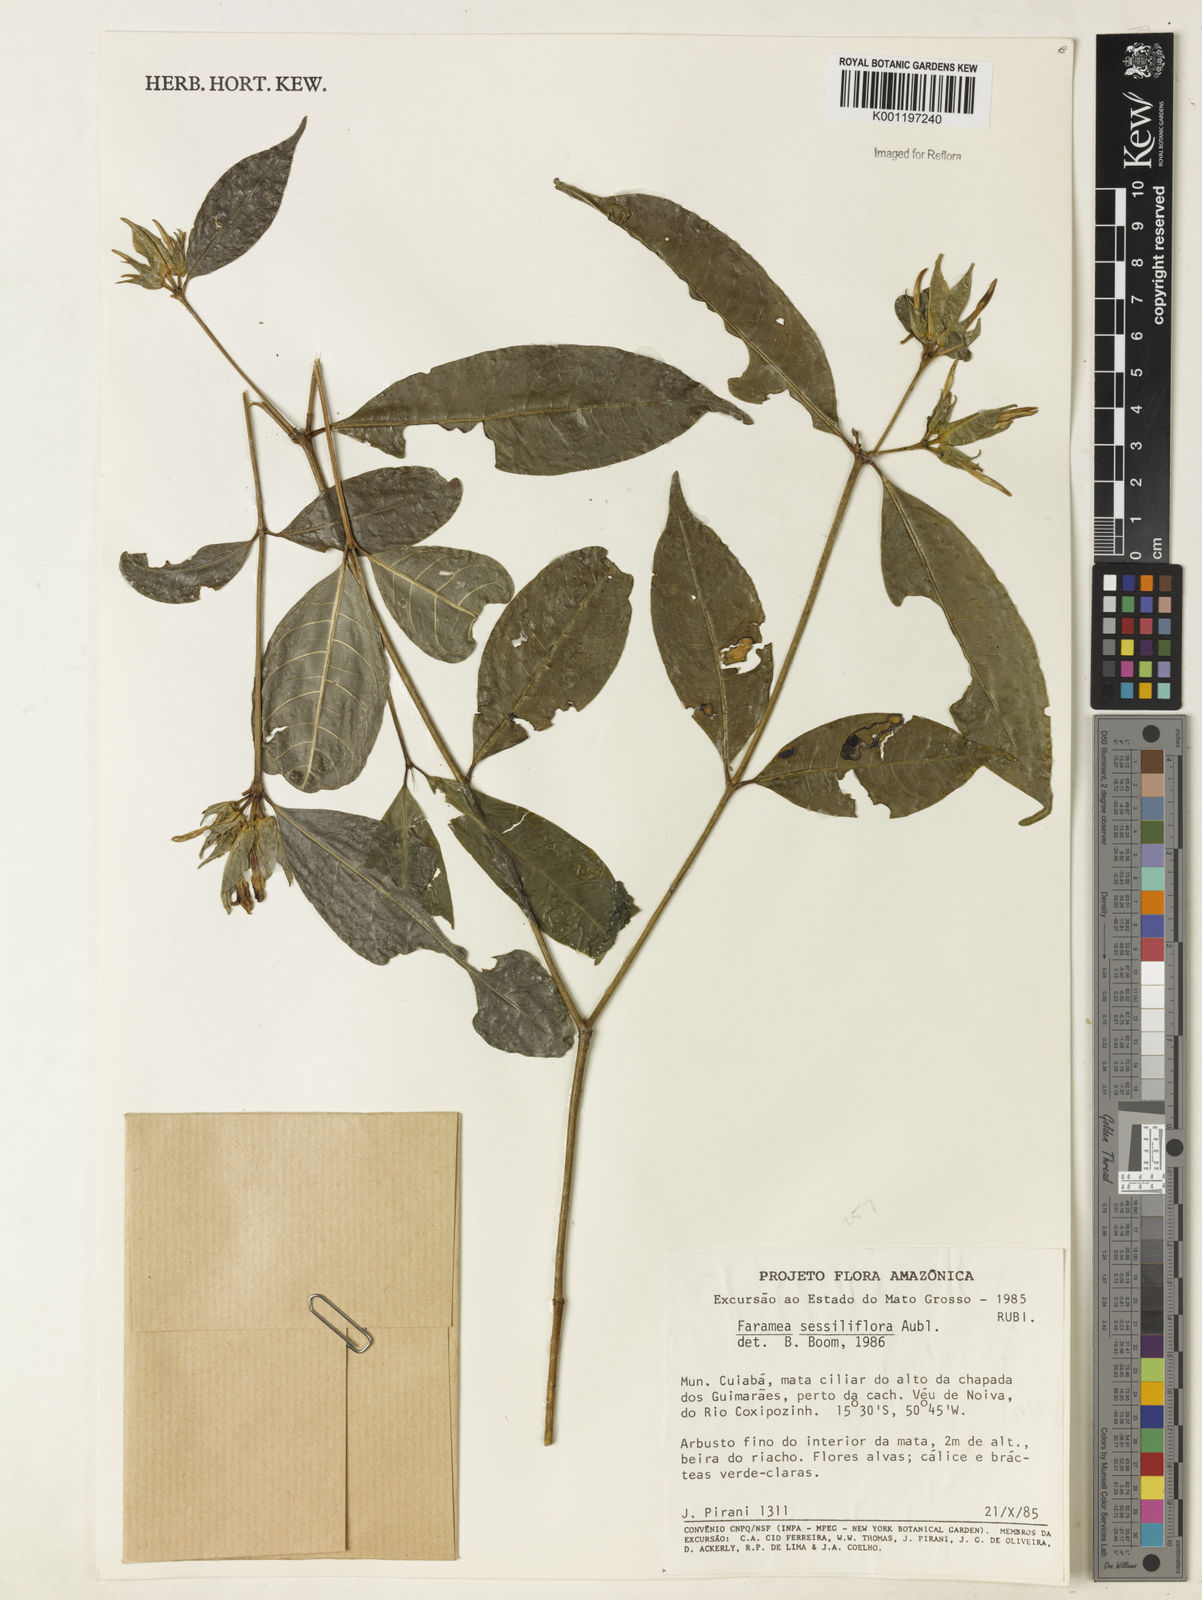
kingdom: Plantae
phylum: Tracheophyta
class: Magnoliopsida
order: Gentianales
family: Rubiaceae
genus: Faramea
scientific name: Faramea sessilifolia
